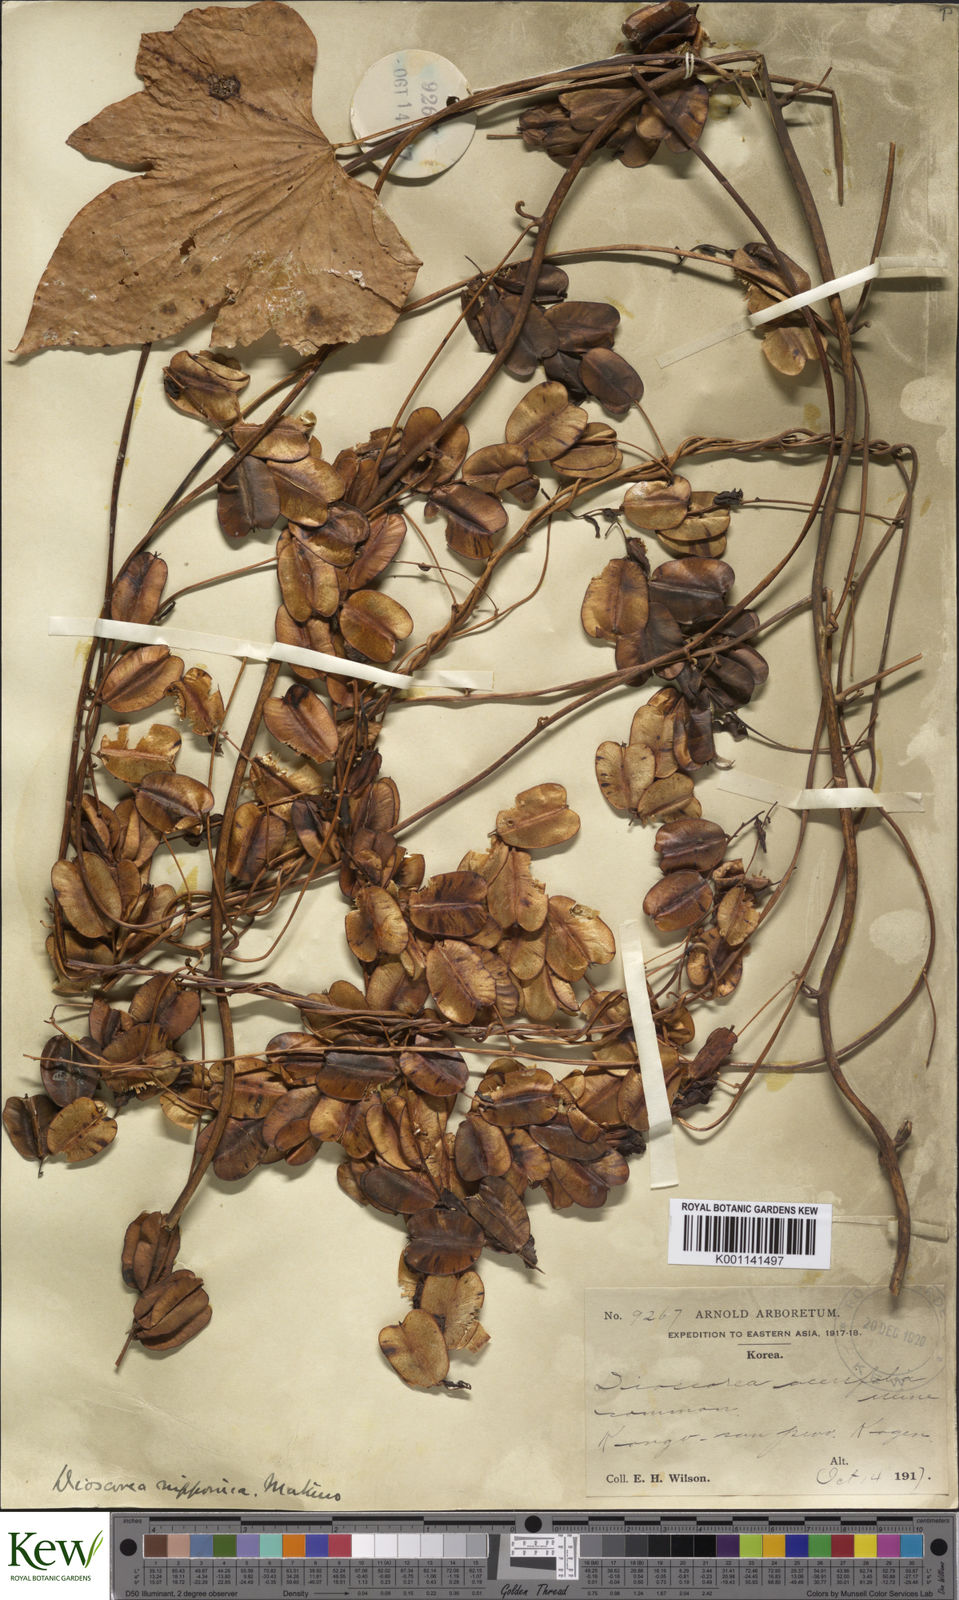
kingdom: Plantae
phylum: Tracheophyta
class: Liliopsida
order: Dioscoreales
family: Dioscoreaceae
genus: Dioscorea
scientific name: Dioscorea nipponica
